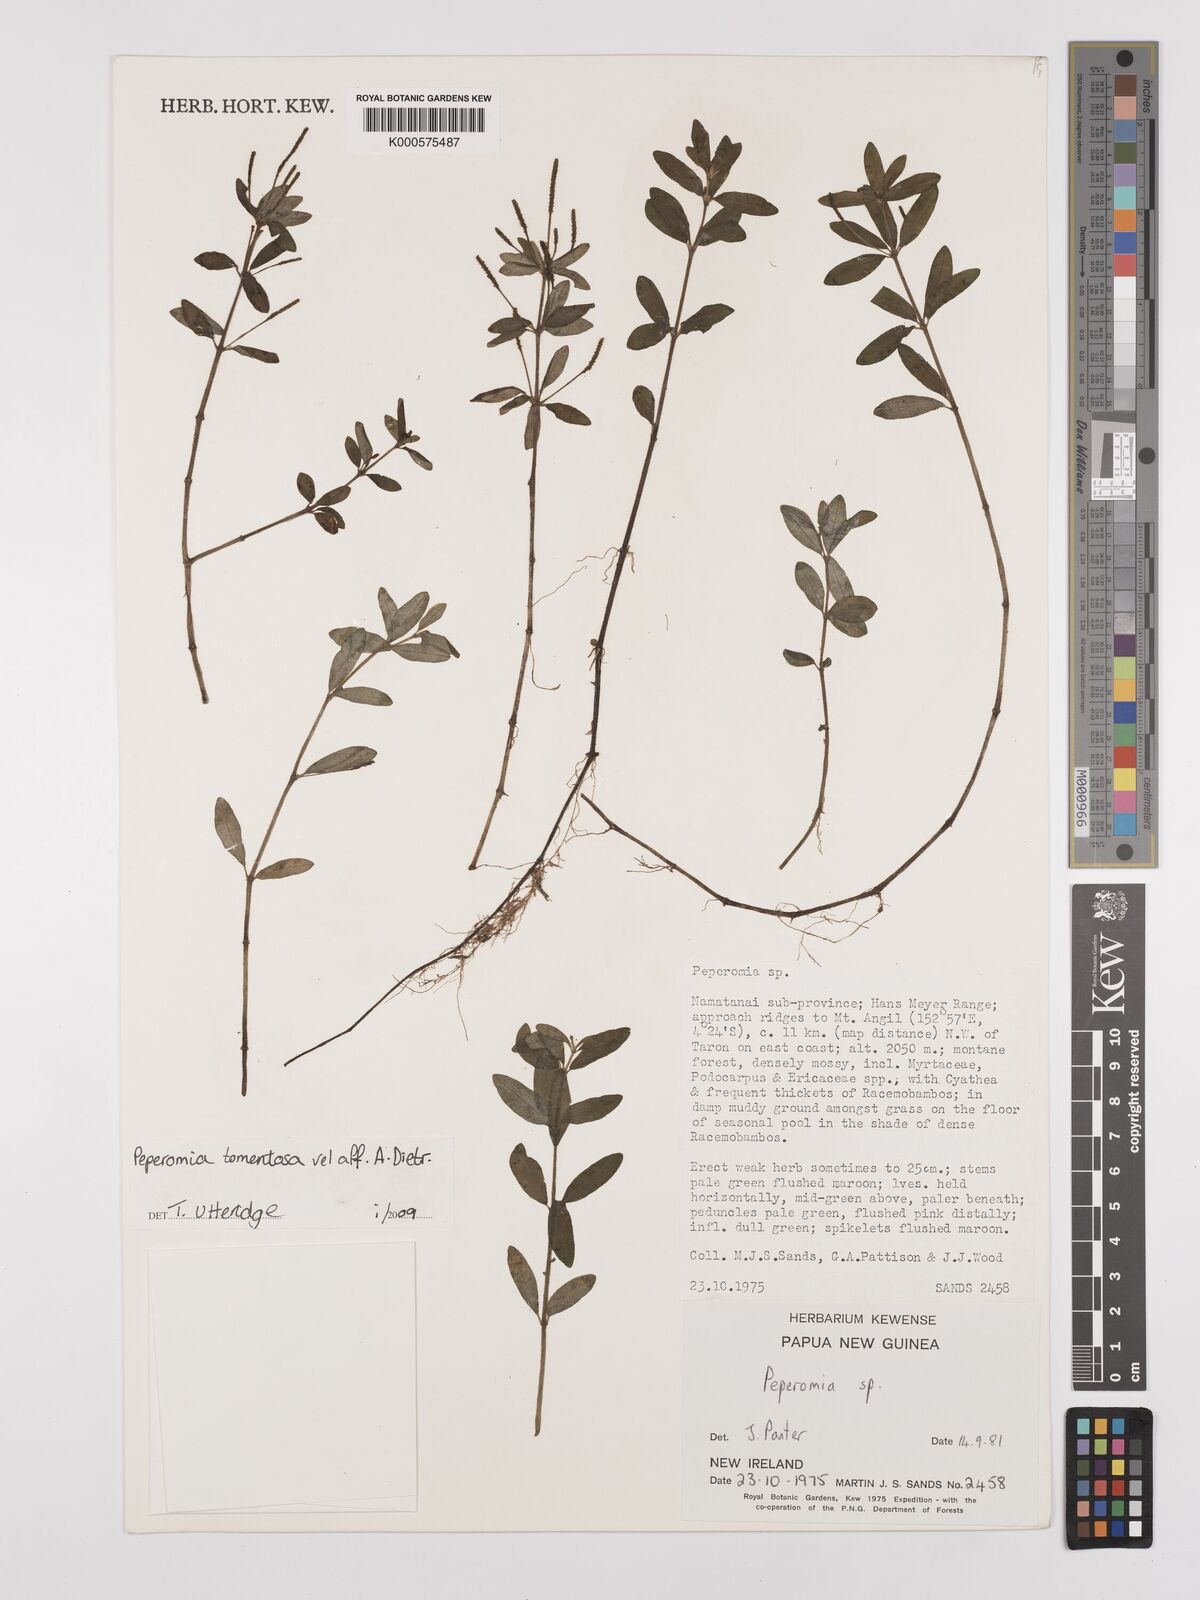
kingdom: Plantae
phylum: Tracheophyta
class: Magnoliopsida
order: Piperales
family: Piperaceae
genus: Peperomia
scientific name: Peperomia
